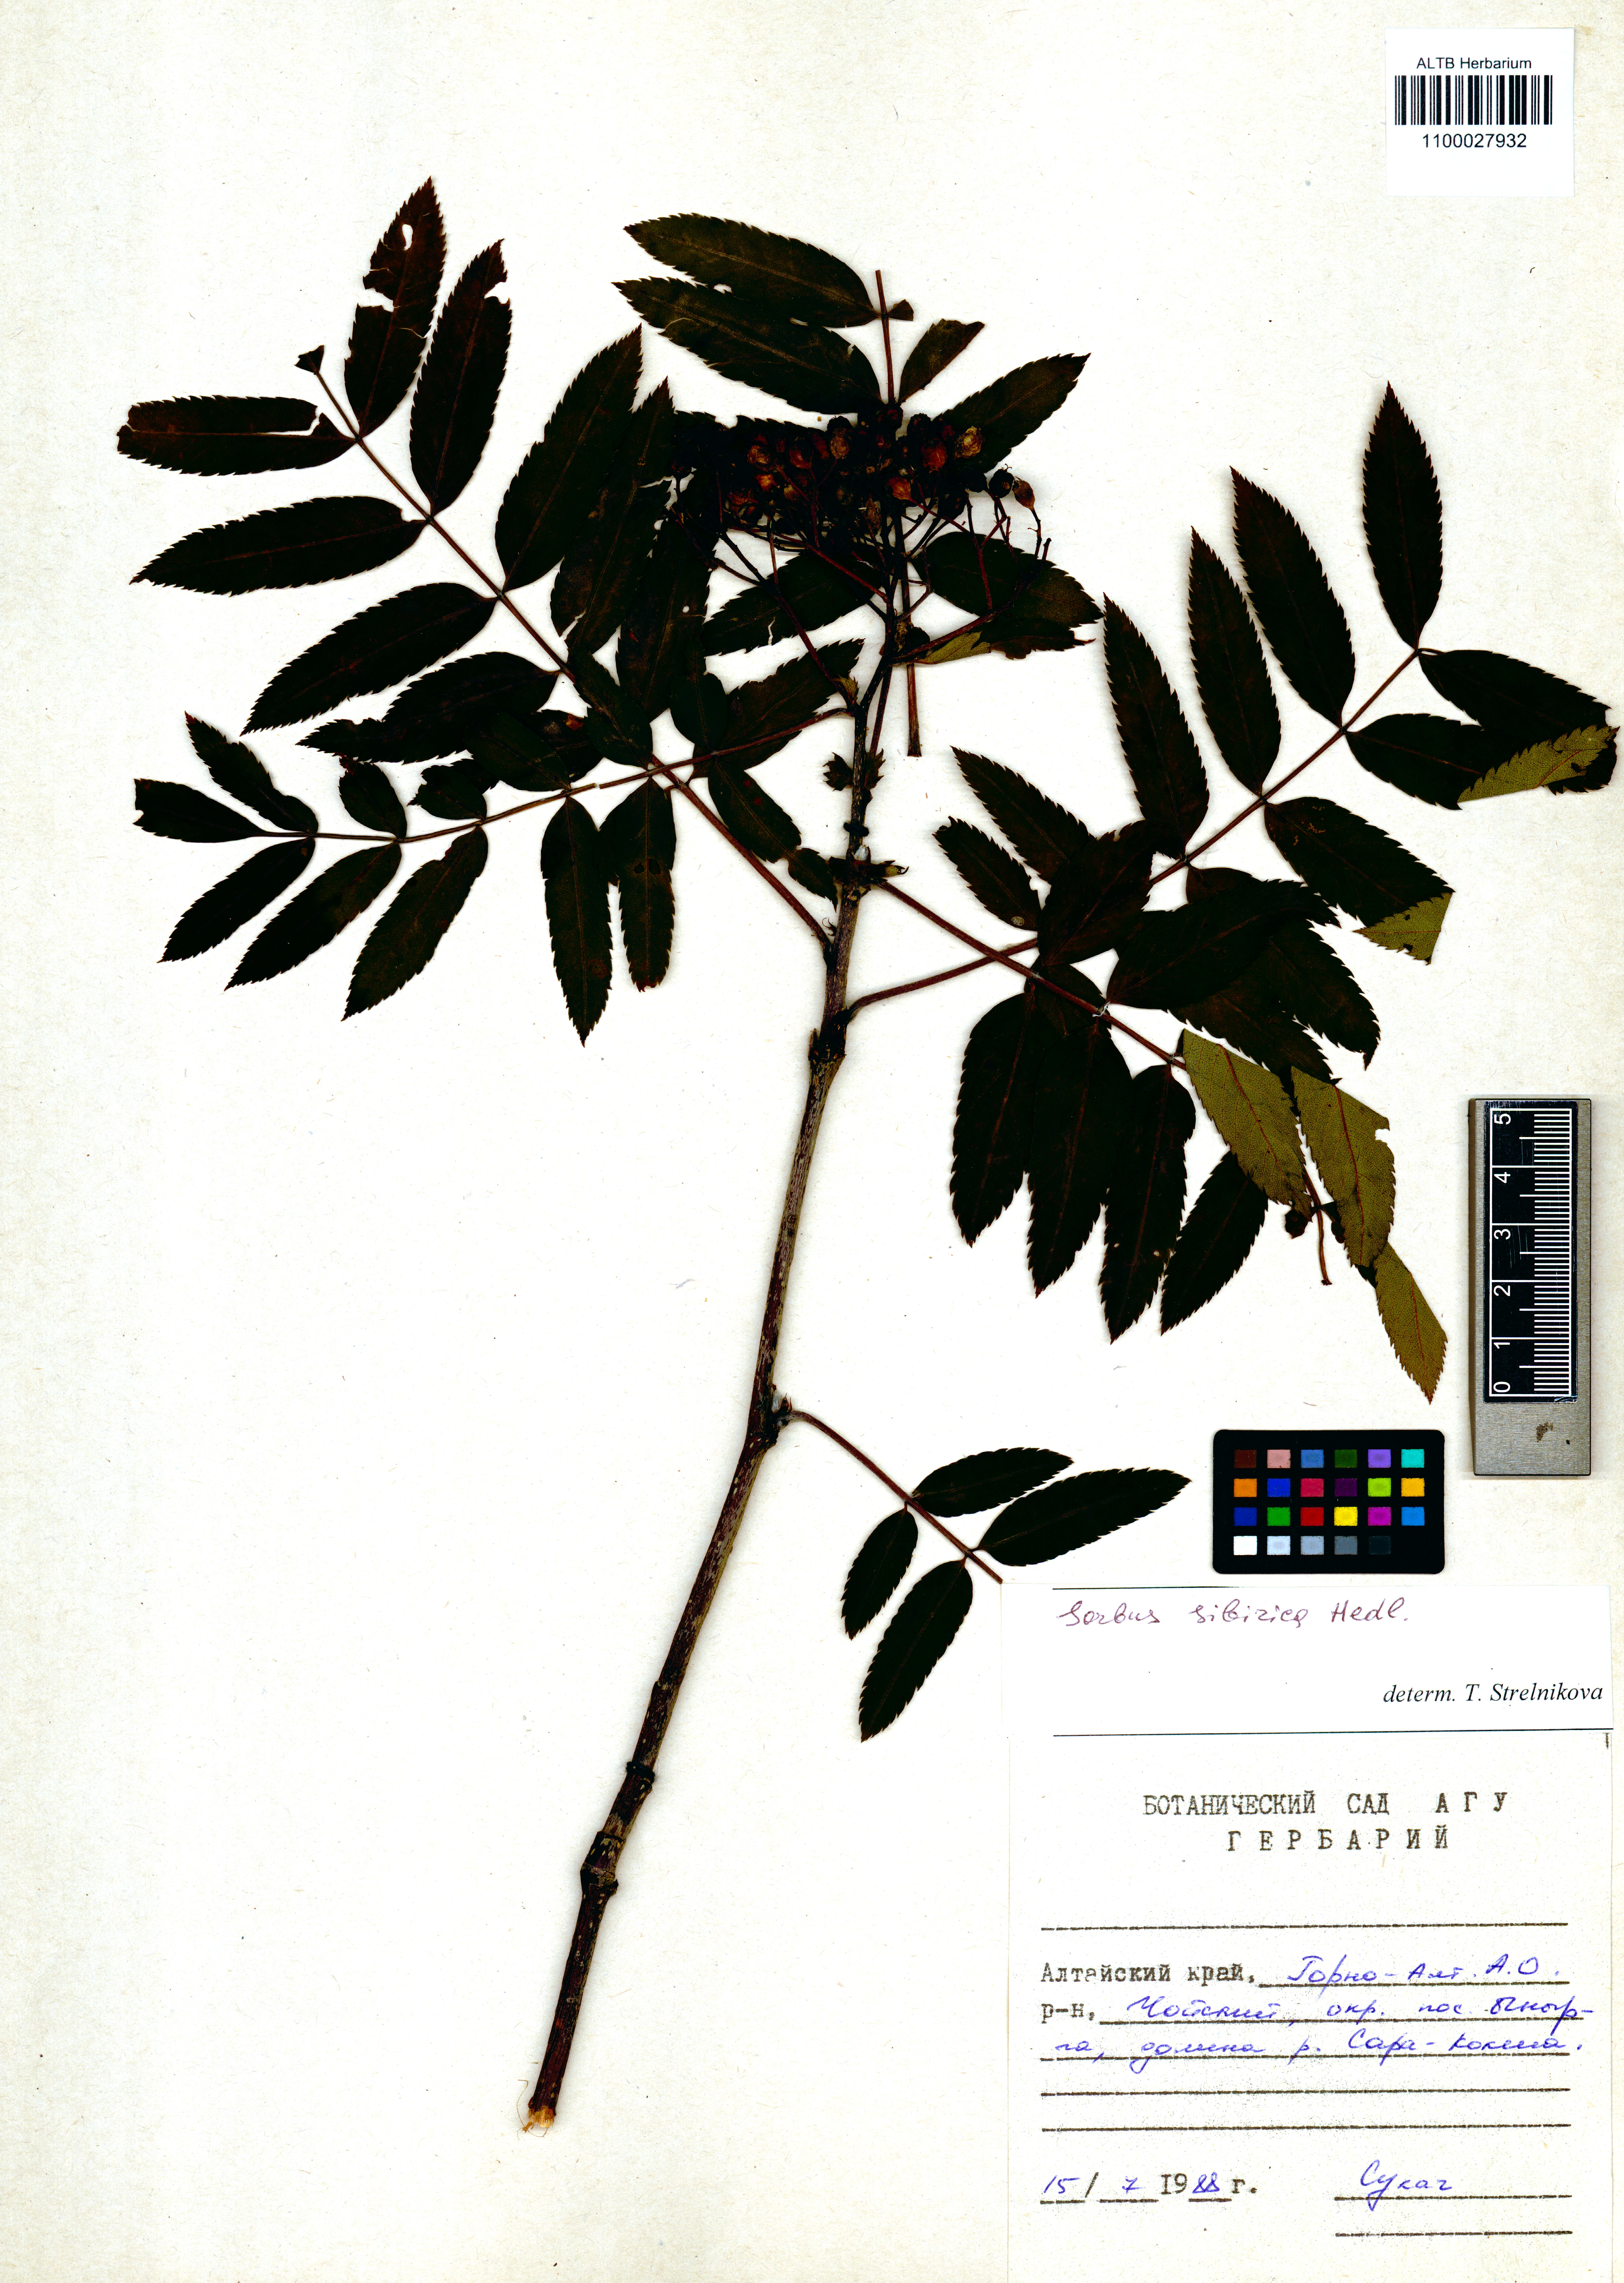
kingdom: Plantae
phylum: Tracheophyta
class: Magnoliopsida
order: Rosales
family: Rosaceae
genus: Sorbus
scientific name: Sorbus aucuparia
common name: Rowan
